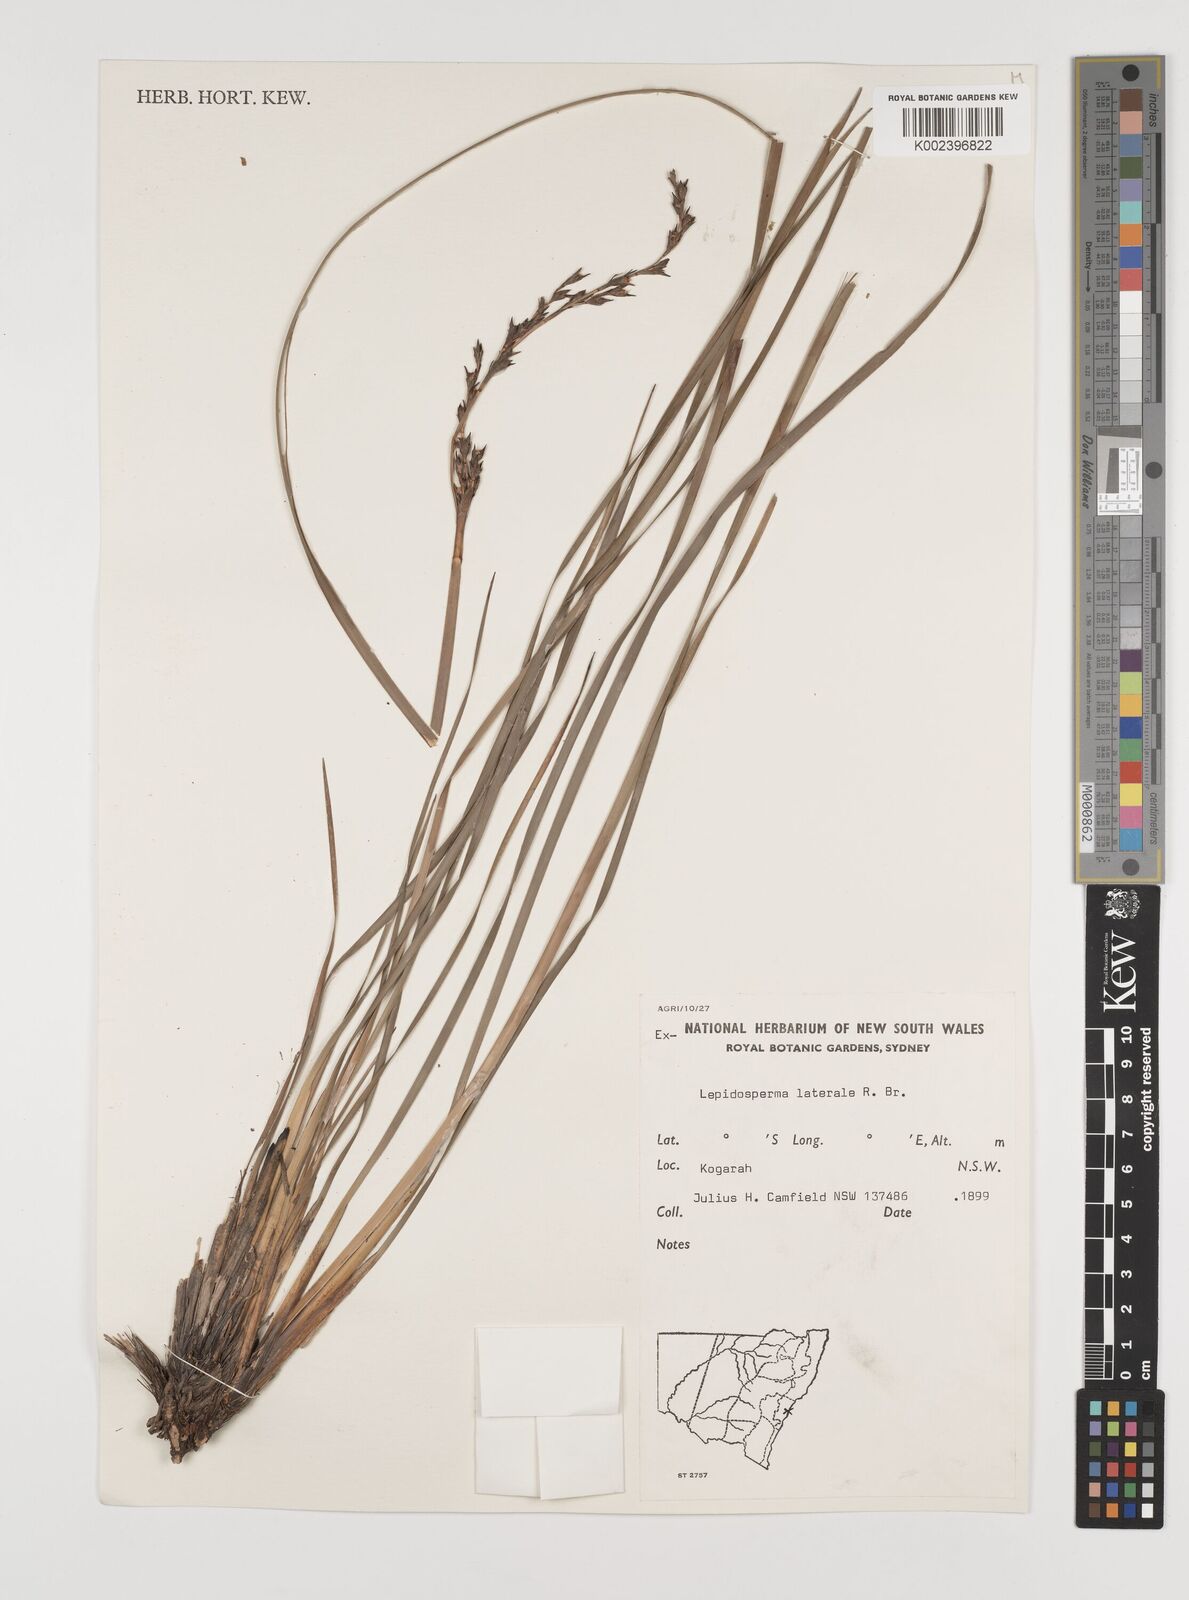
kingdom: Plantae
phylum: Tracheophyta
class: Liliopsida
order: Poales
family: Cyperaceae
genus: Lepidosperma
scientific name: Lepidosperma laterale
